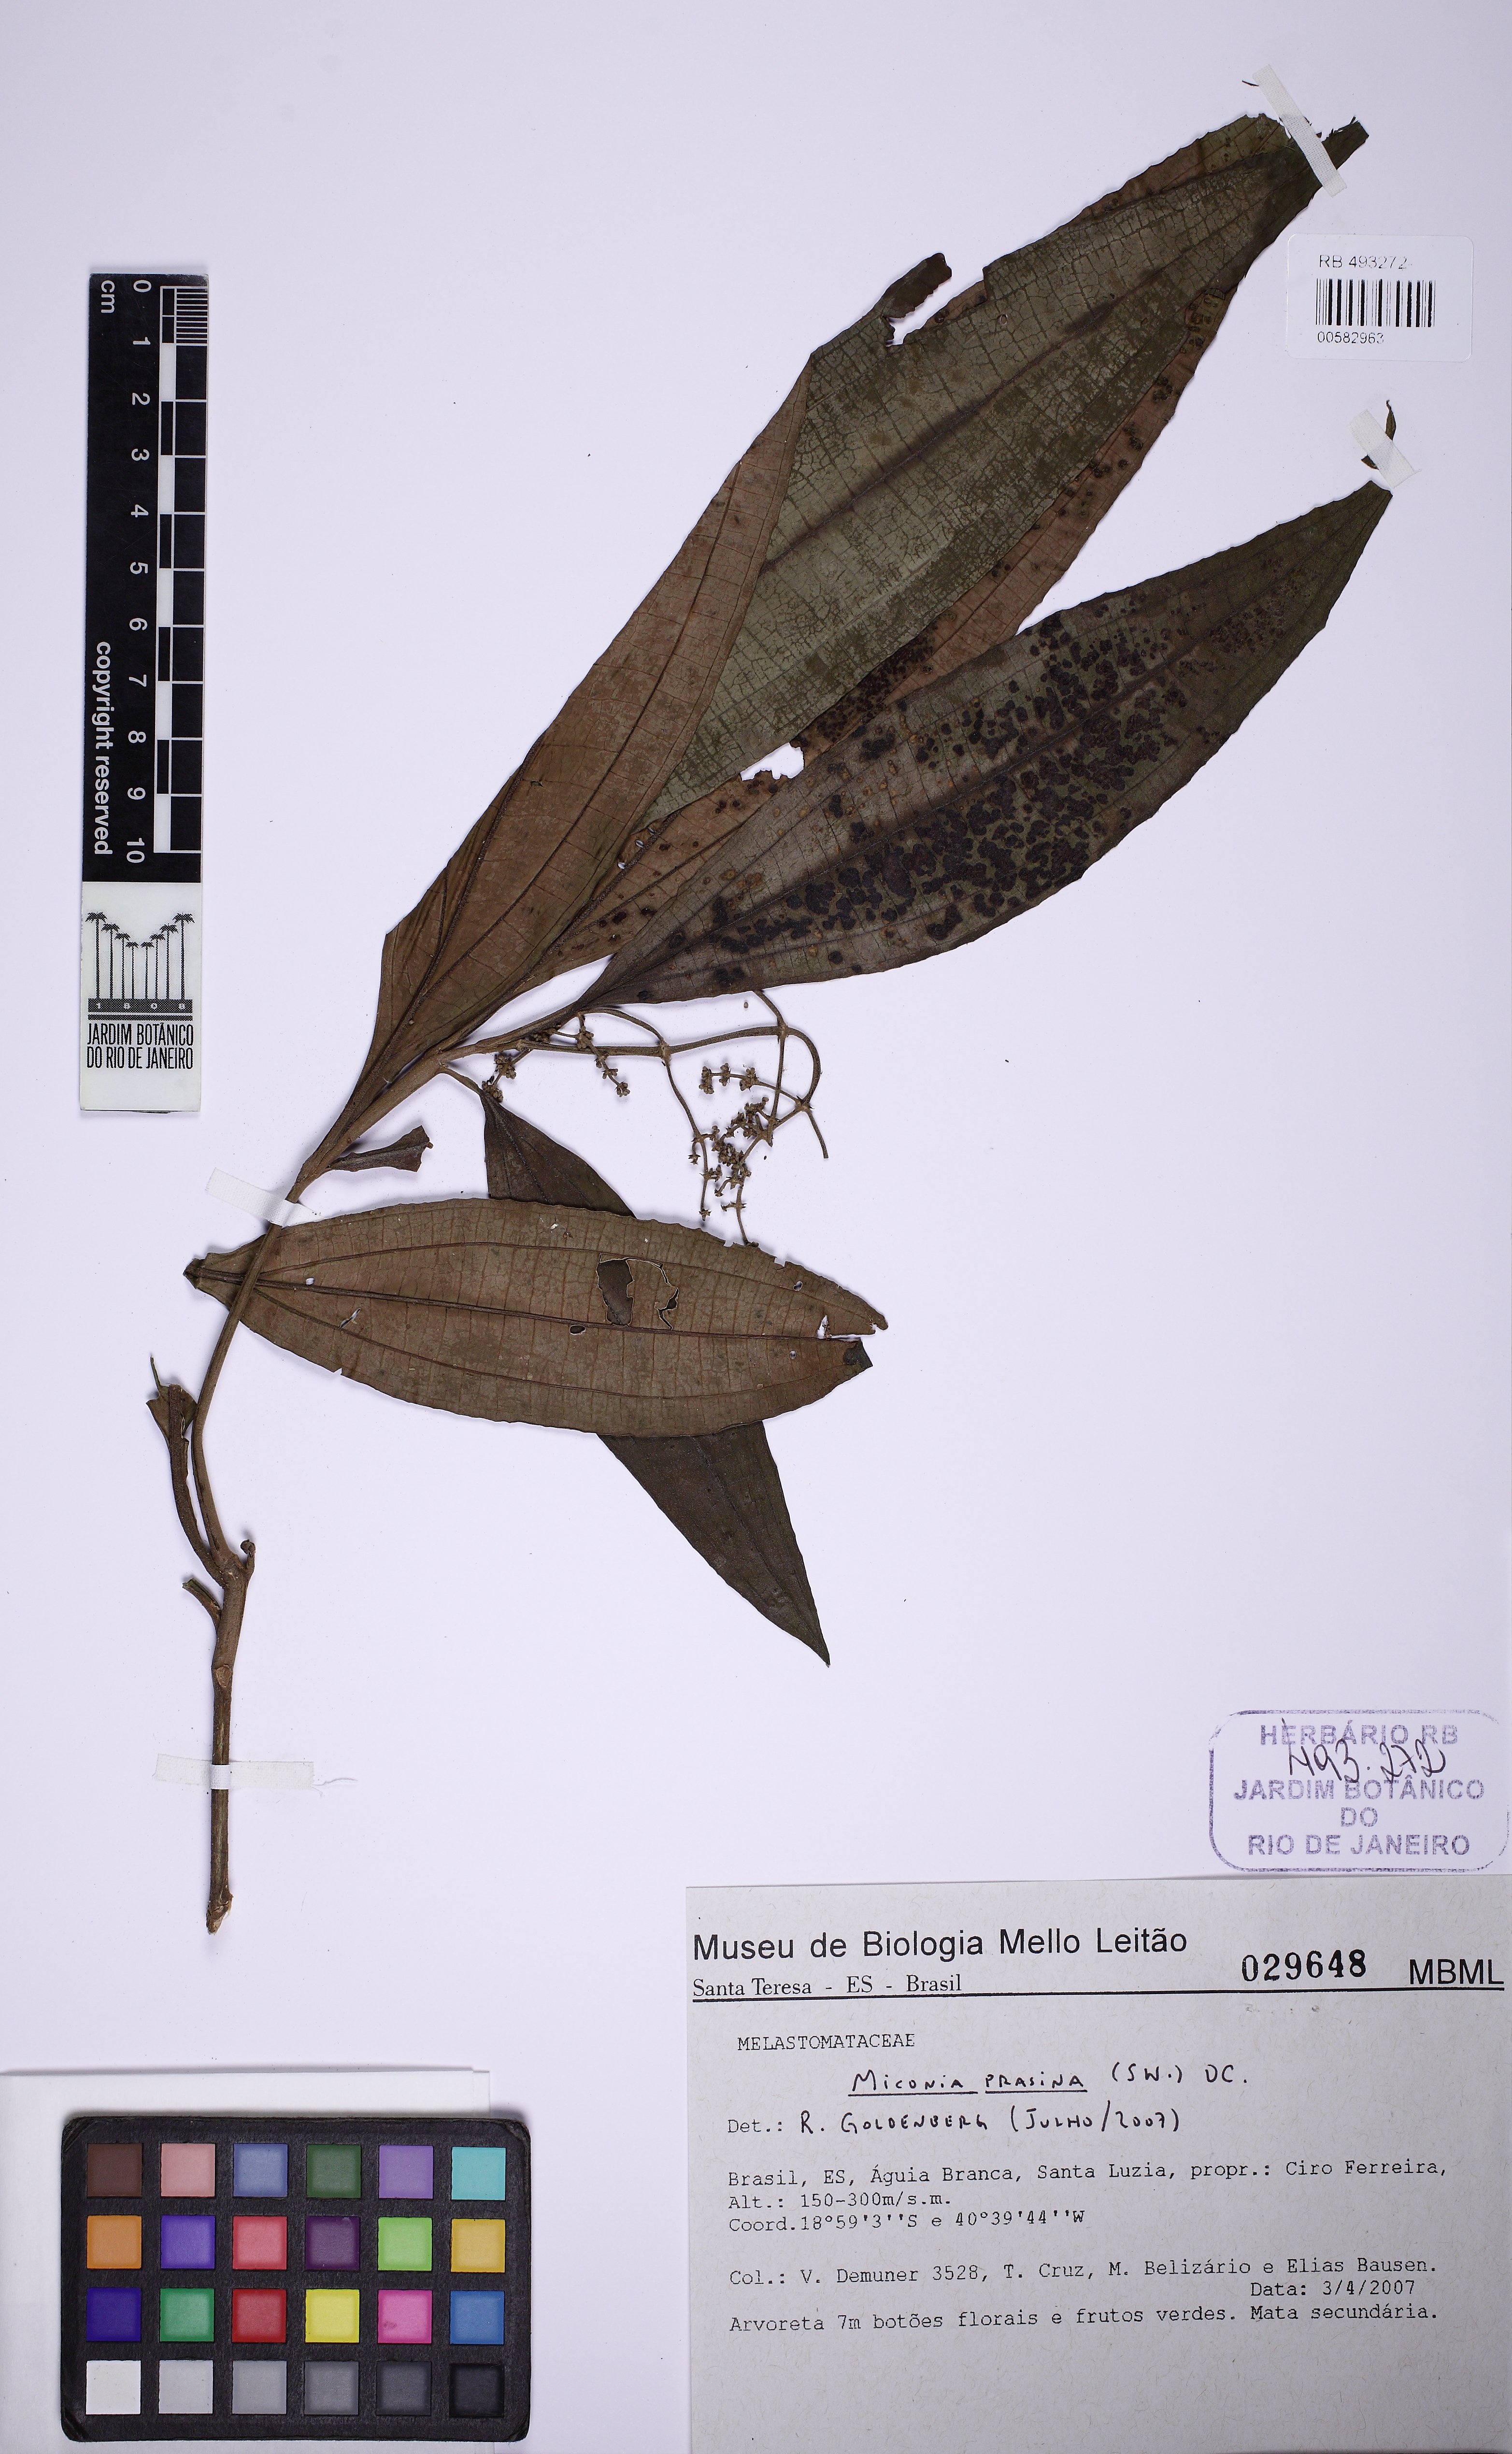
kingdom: Plantae
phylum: Tracheophyta
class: Magnoliopsida
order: Myrtales
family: Melastomataceae
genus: Miconia
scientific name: Miconia prasina
